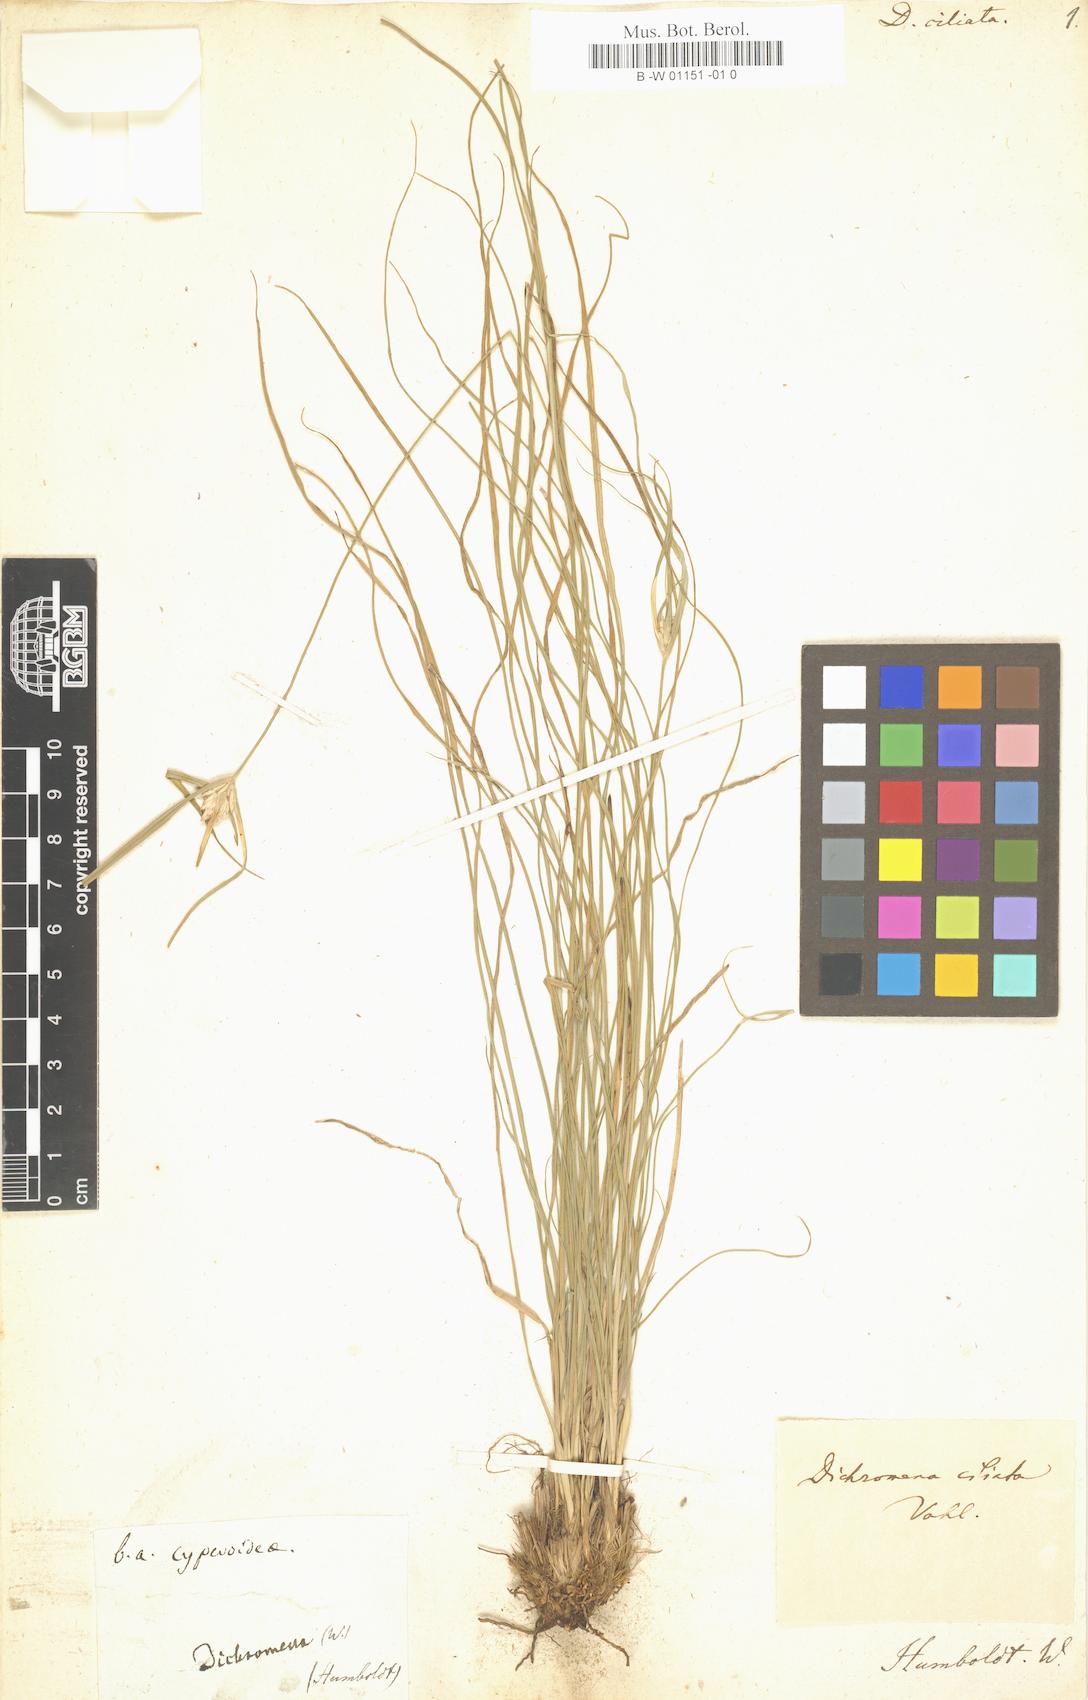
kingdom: Plantae
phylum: Tracheophyta
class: Liliopsida
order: Poales
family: Cyperaceae
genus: Rhynchospora
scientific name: Rhynchospora pura
